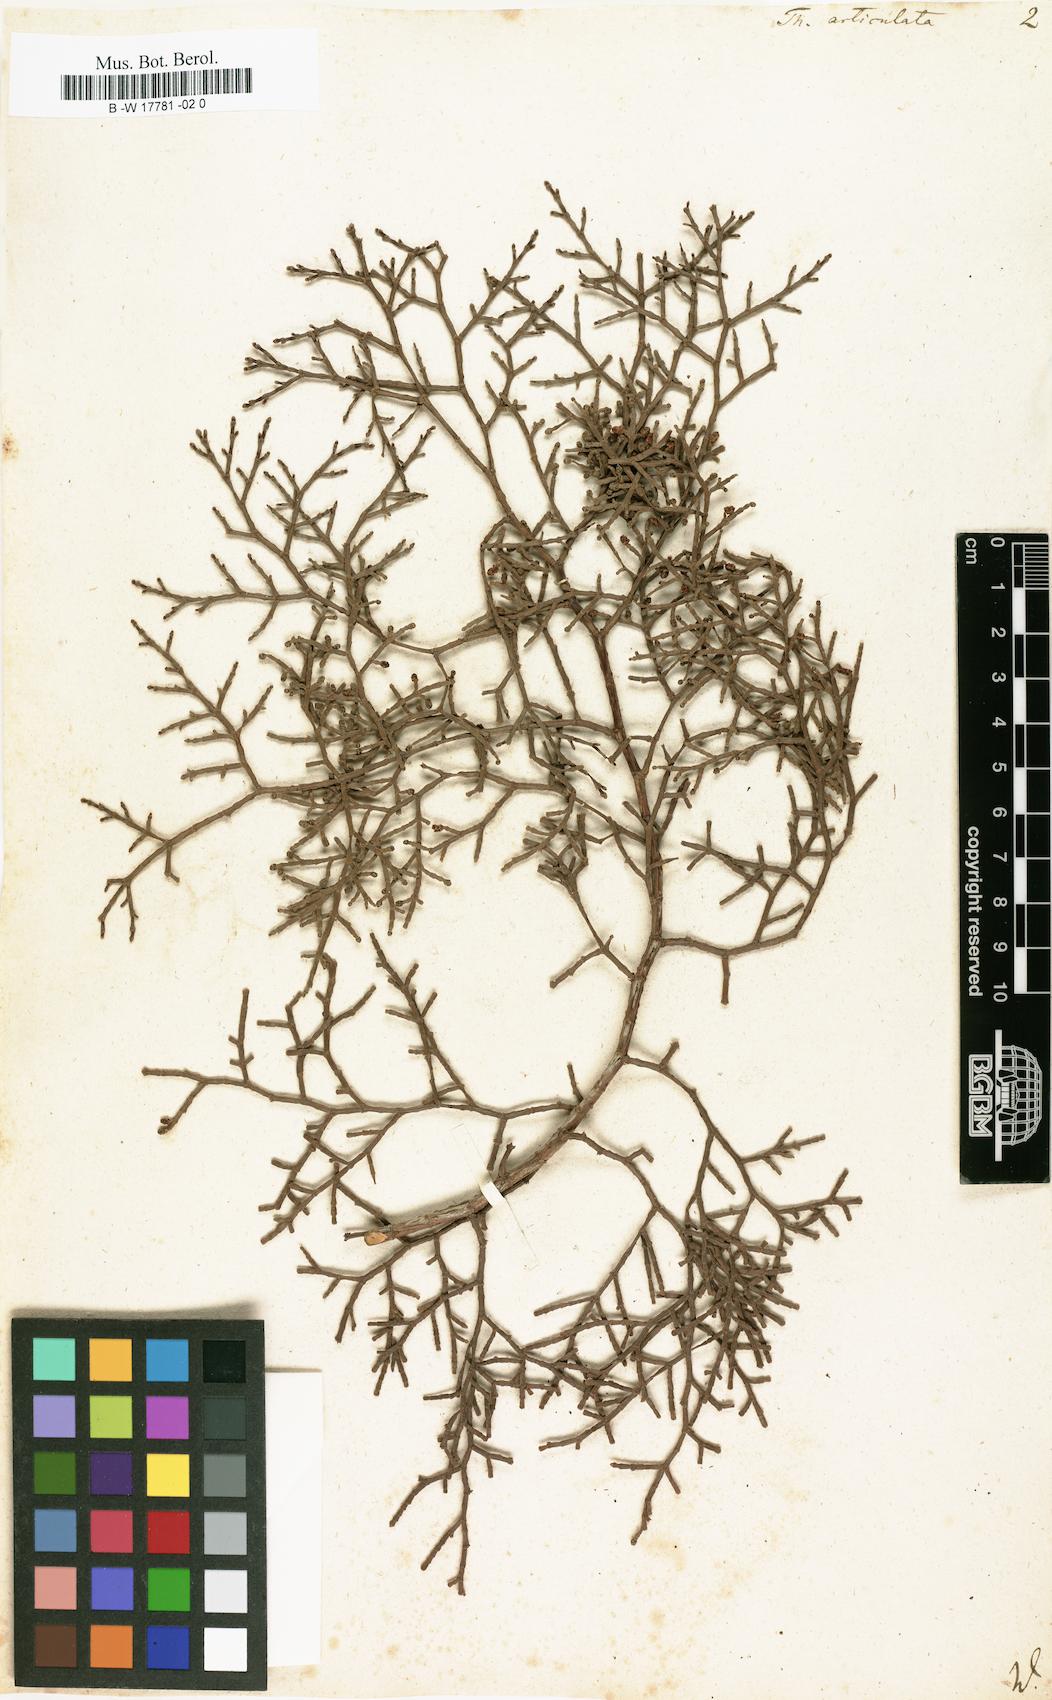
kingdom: Plantae
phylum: Tracheophyta
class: Pinopsida
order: Pinales
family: Cupressaceae
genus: Tetraclinis
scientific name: Tetraclinis articulata
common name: Sandarac
